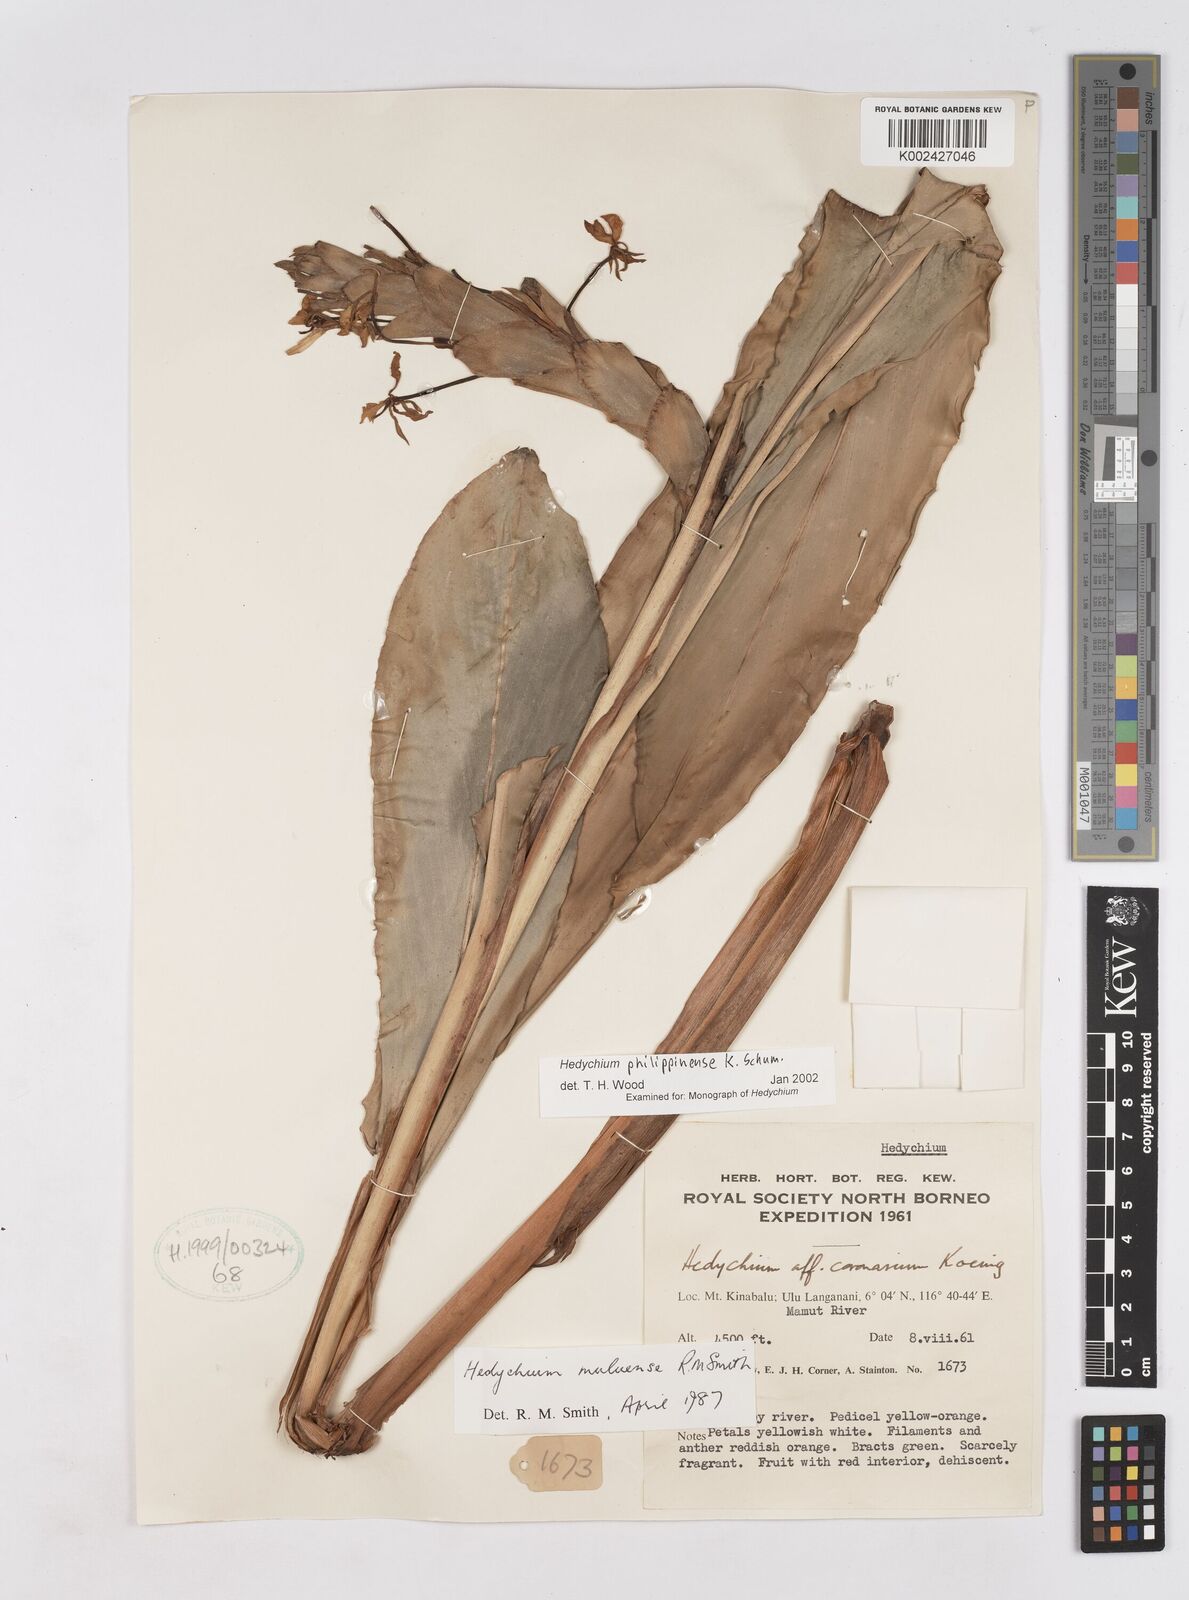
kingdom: Plantae
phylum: Tracheophyta
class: Liliopsida
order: Zingiberales
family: Zingiberaceae
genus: Hedychium
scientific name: Hedychium philippinense
